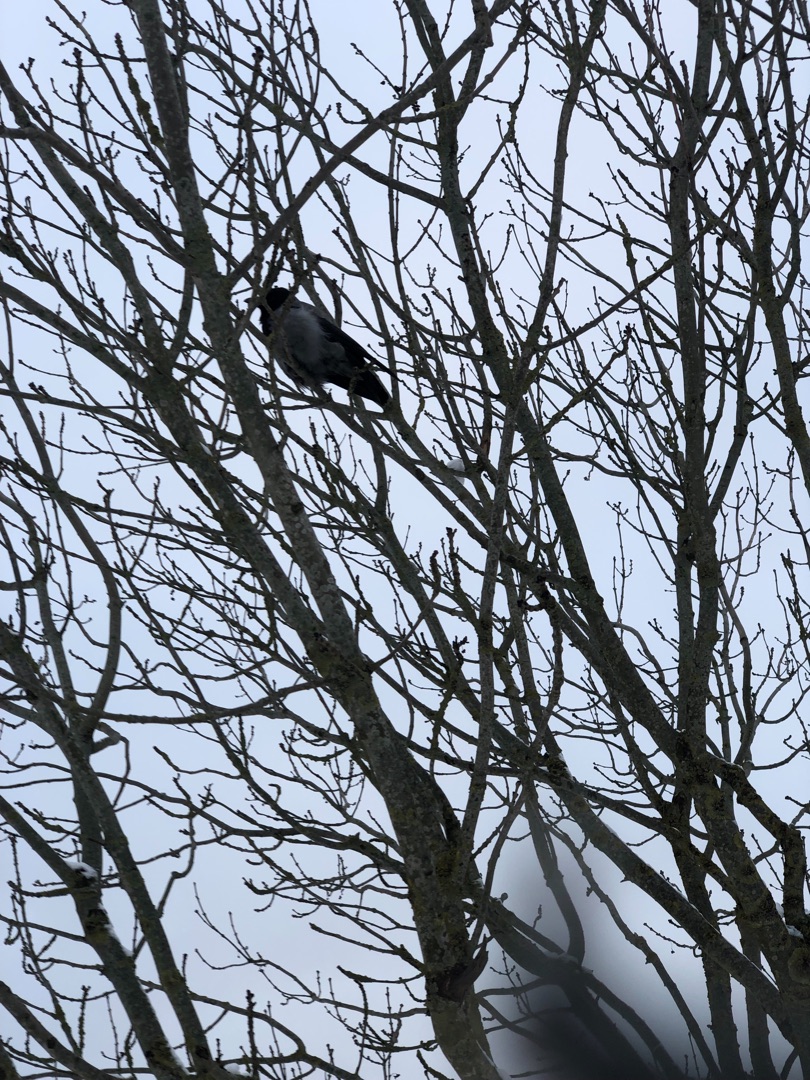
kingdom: Animalia
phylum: Chordata
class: Aves
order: Passeriformes
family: Corvidae
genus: Corvus
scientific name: Corvus cornix
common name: Gråkrage
